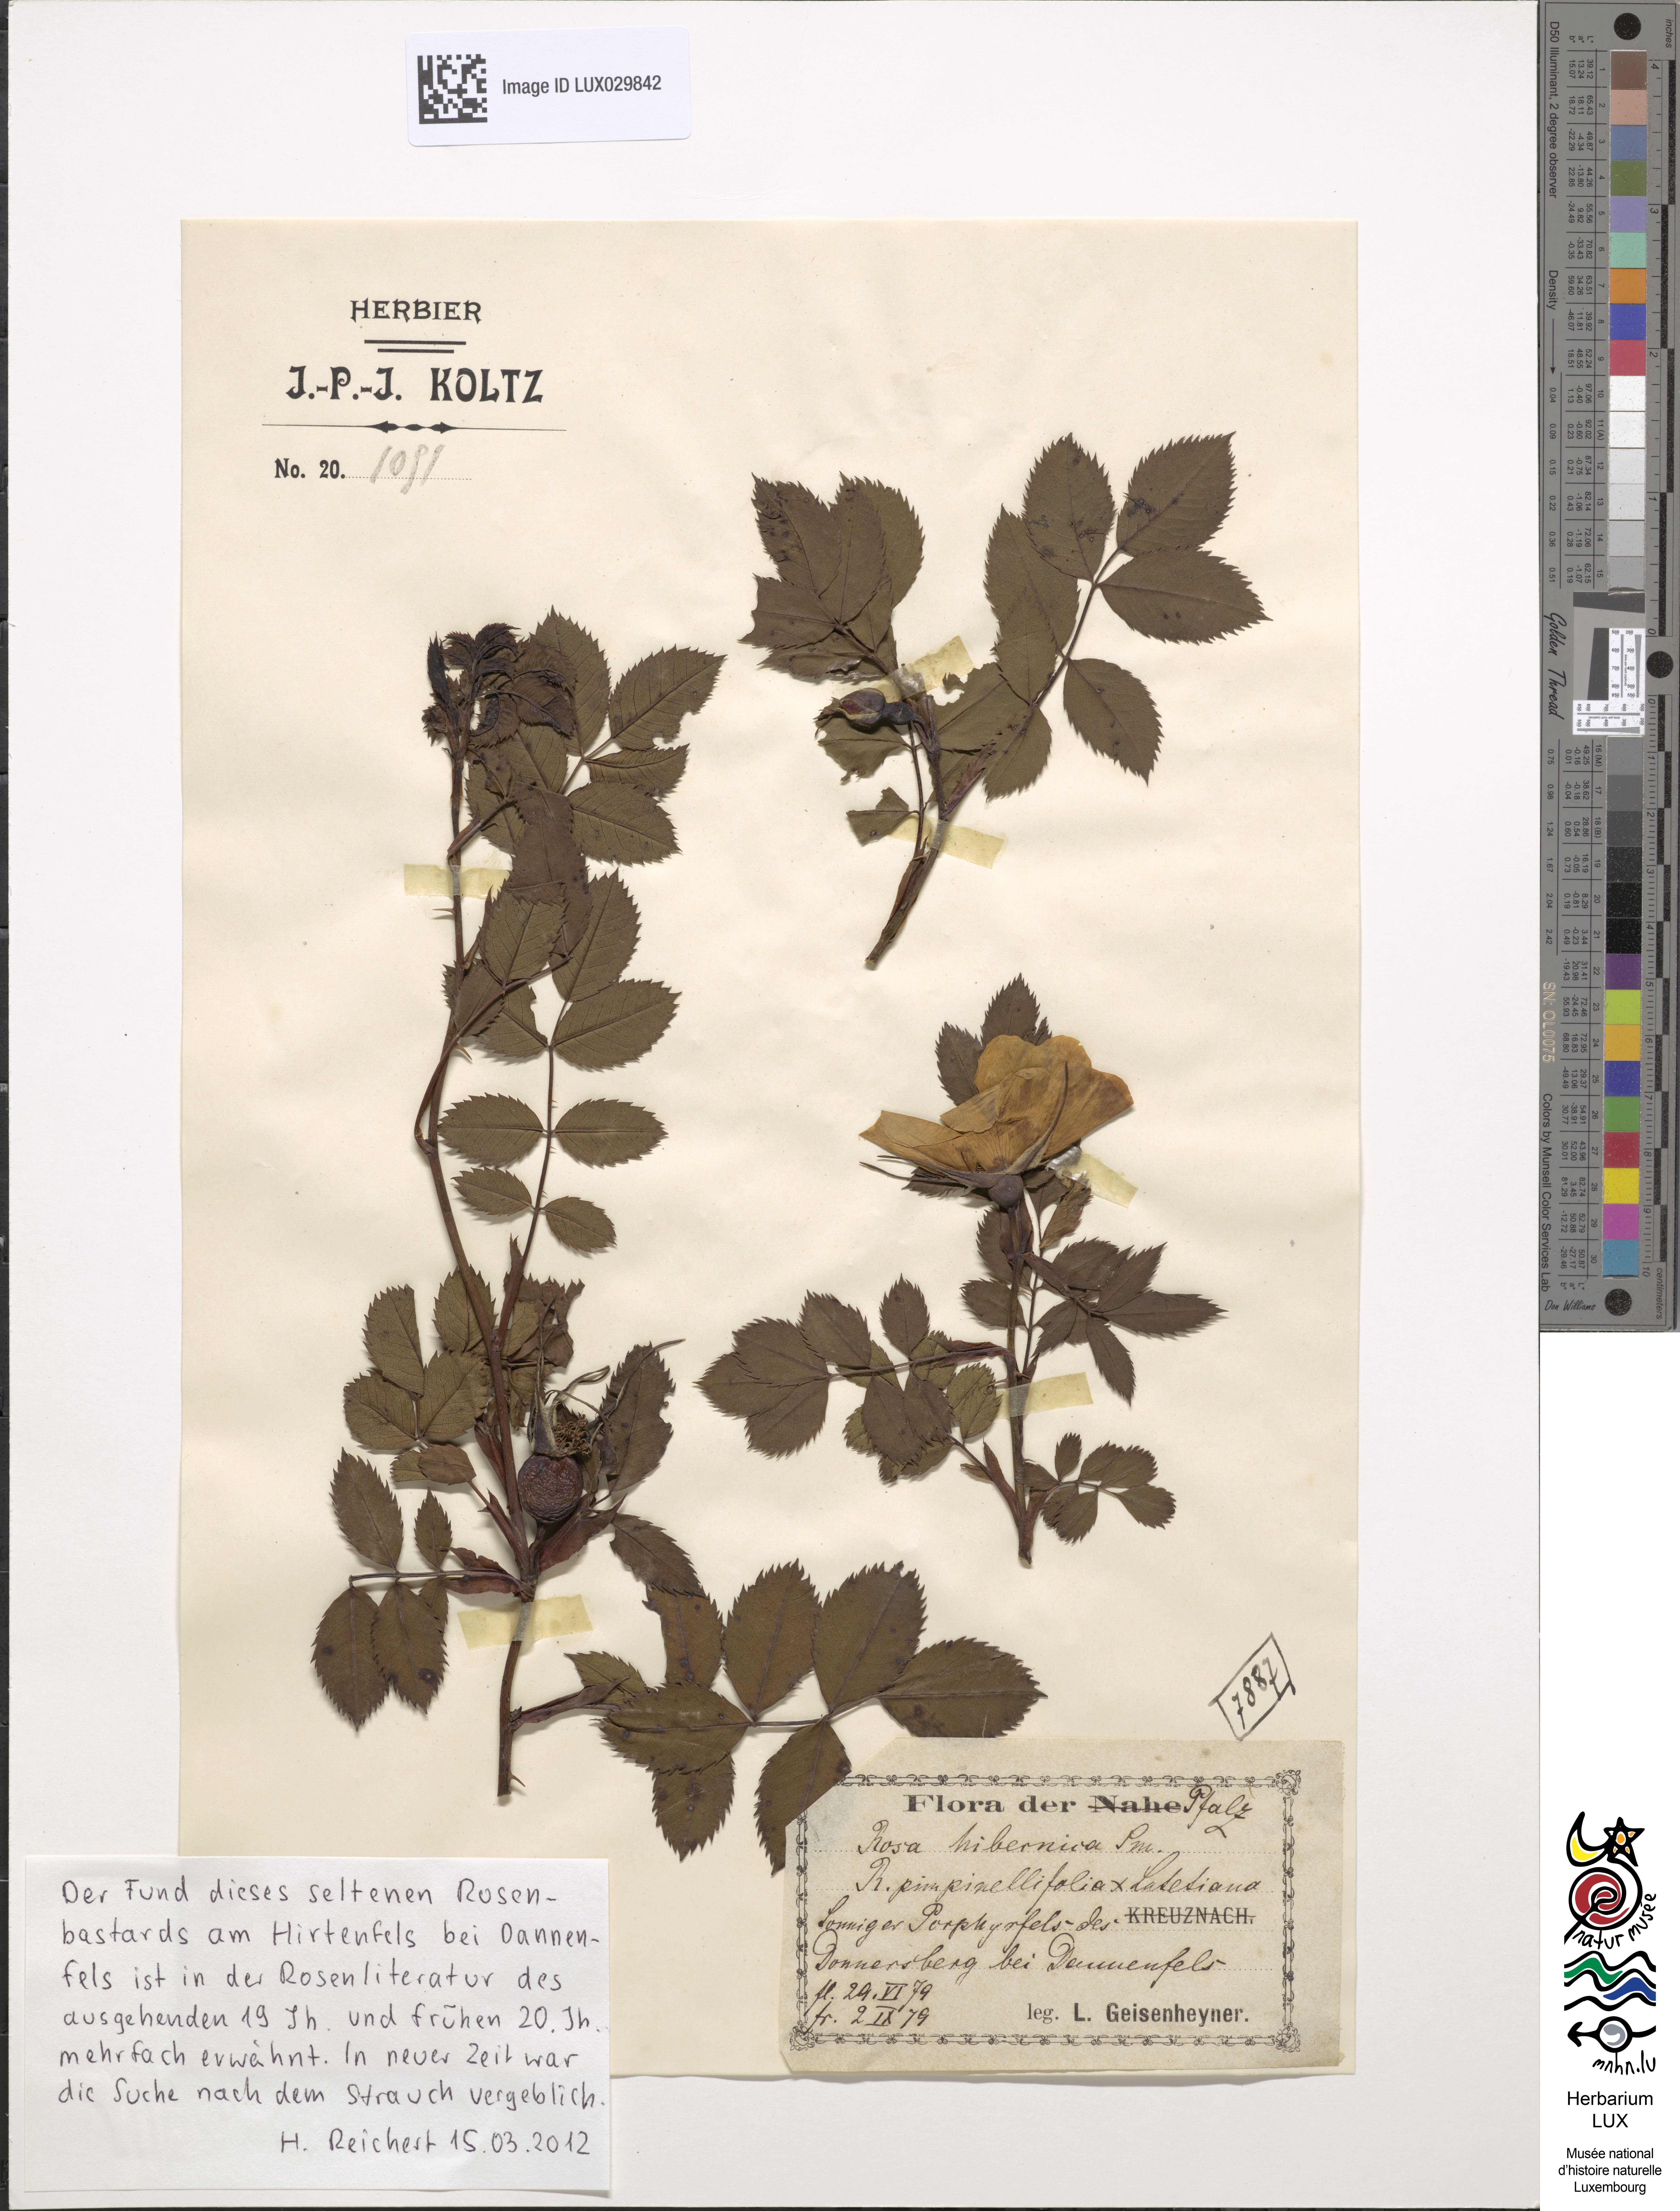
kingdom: Plantae
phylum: Tracheophyta
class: Magnoliopsida
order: Rosales
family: Rosaceae
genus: Rosa
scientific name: Rosa glauca
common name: Redleaf rose
